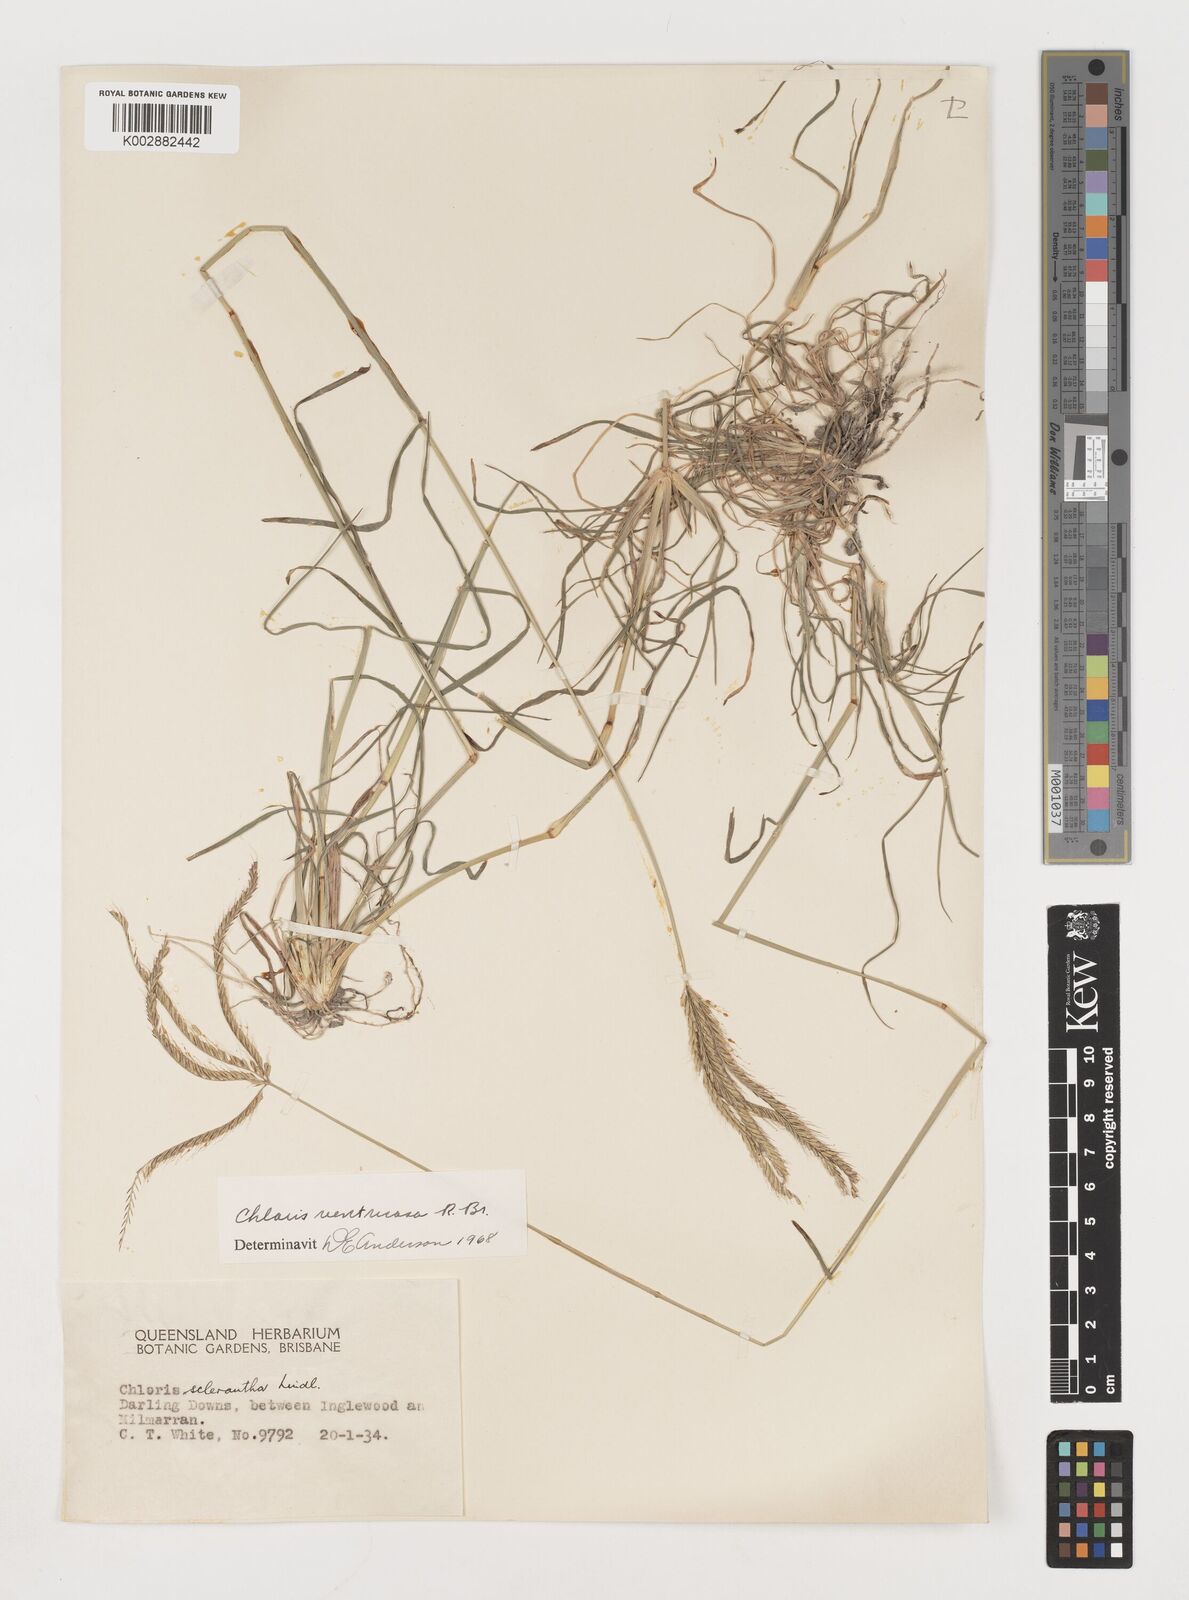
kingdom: Plantae
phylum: Tracheophyta
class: Liliopsida
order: Poales
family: Poaceae
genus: Chloris
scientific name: Chloris ventricosa
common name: Australian windmill grass
